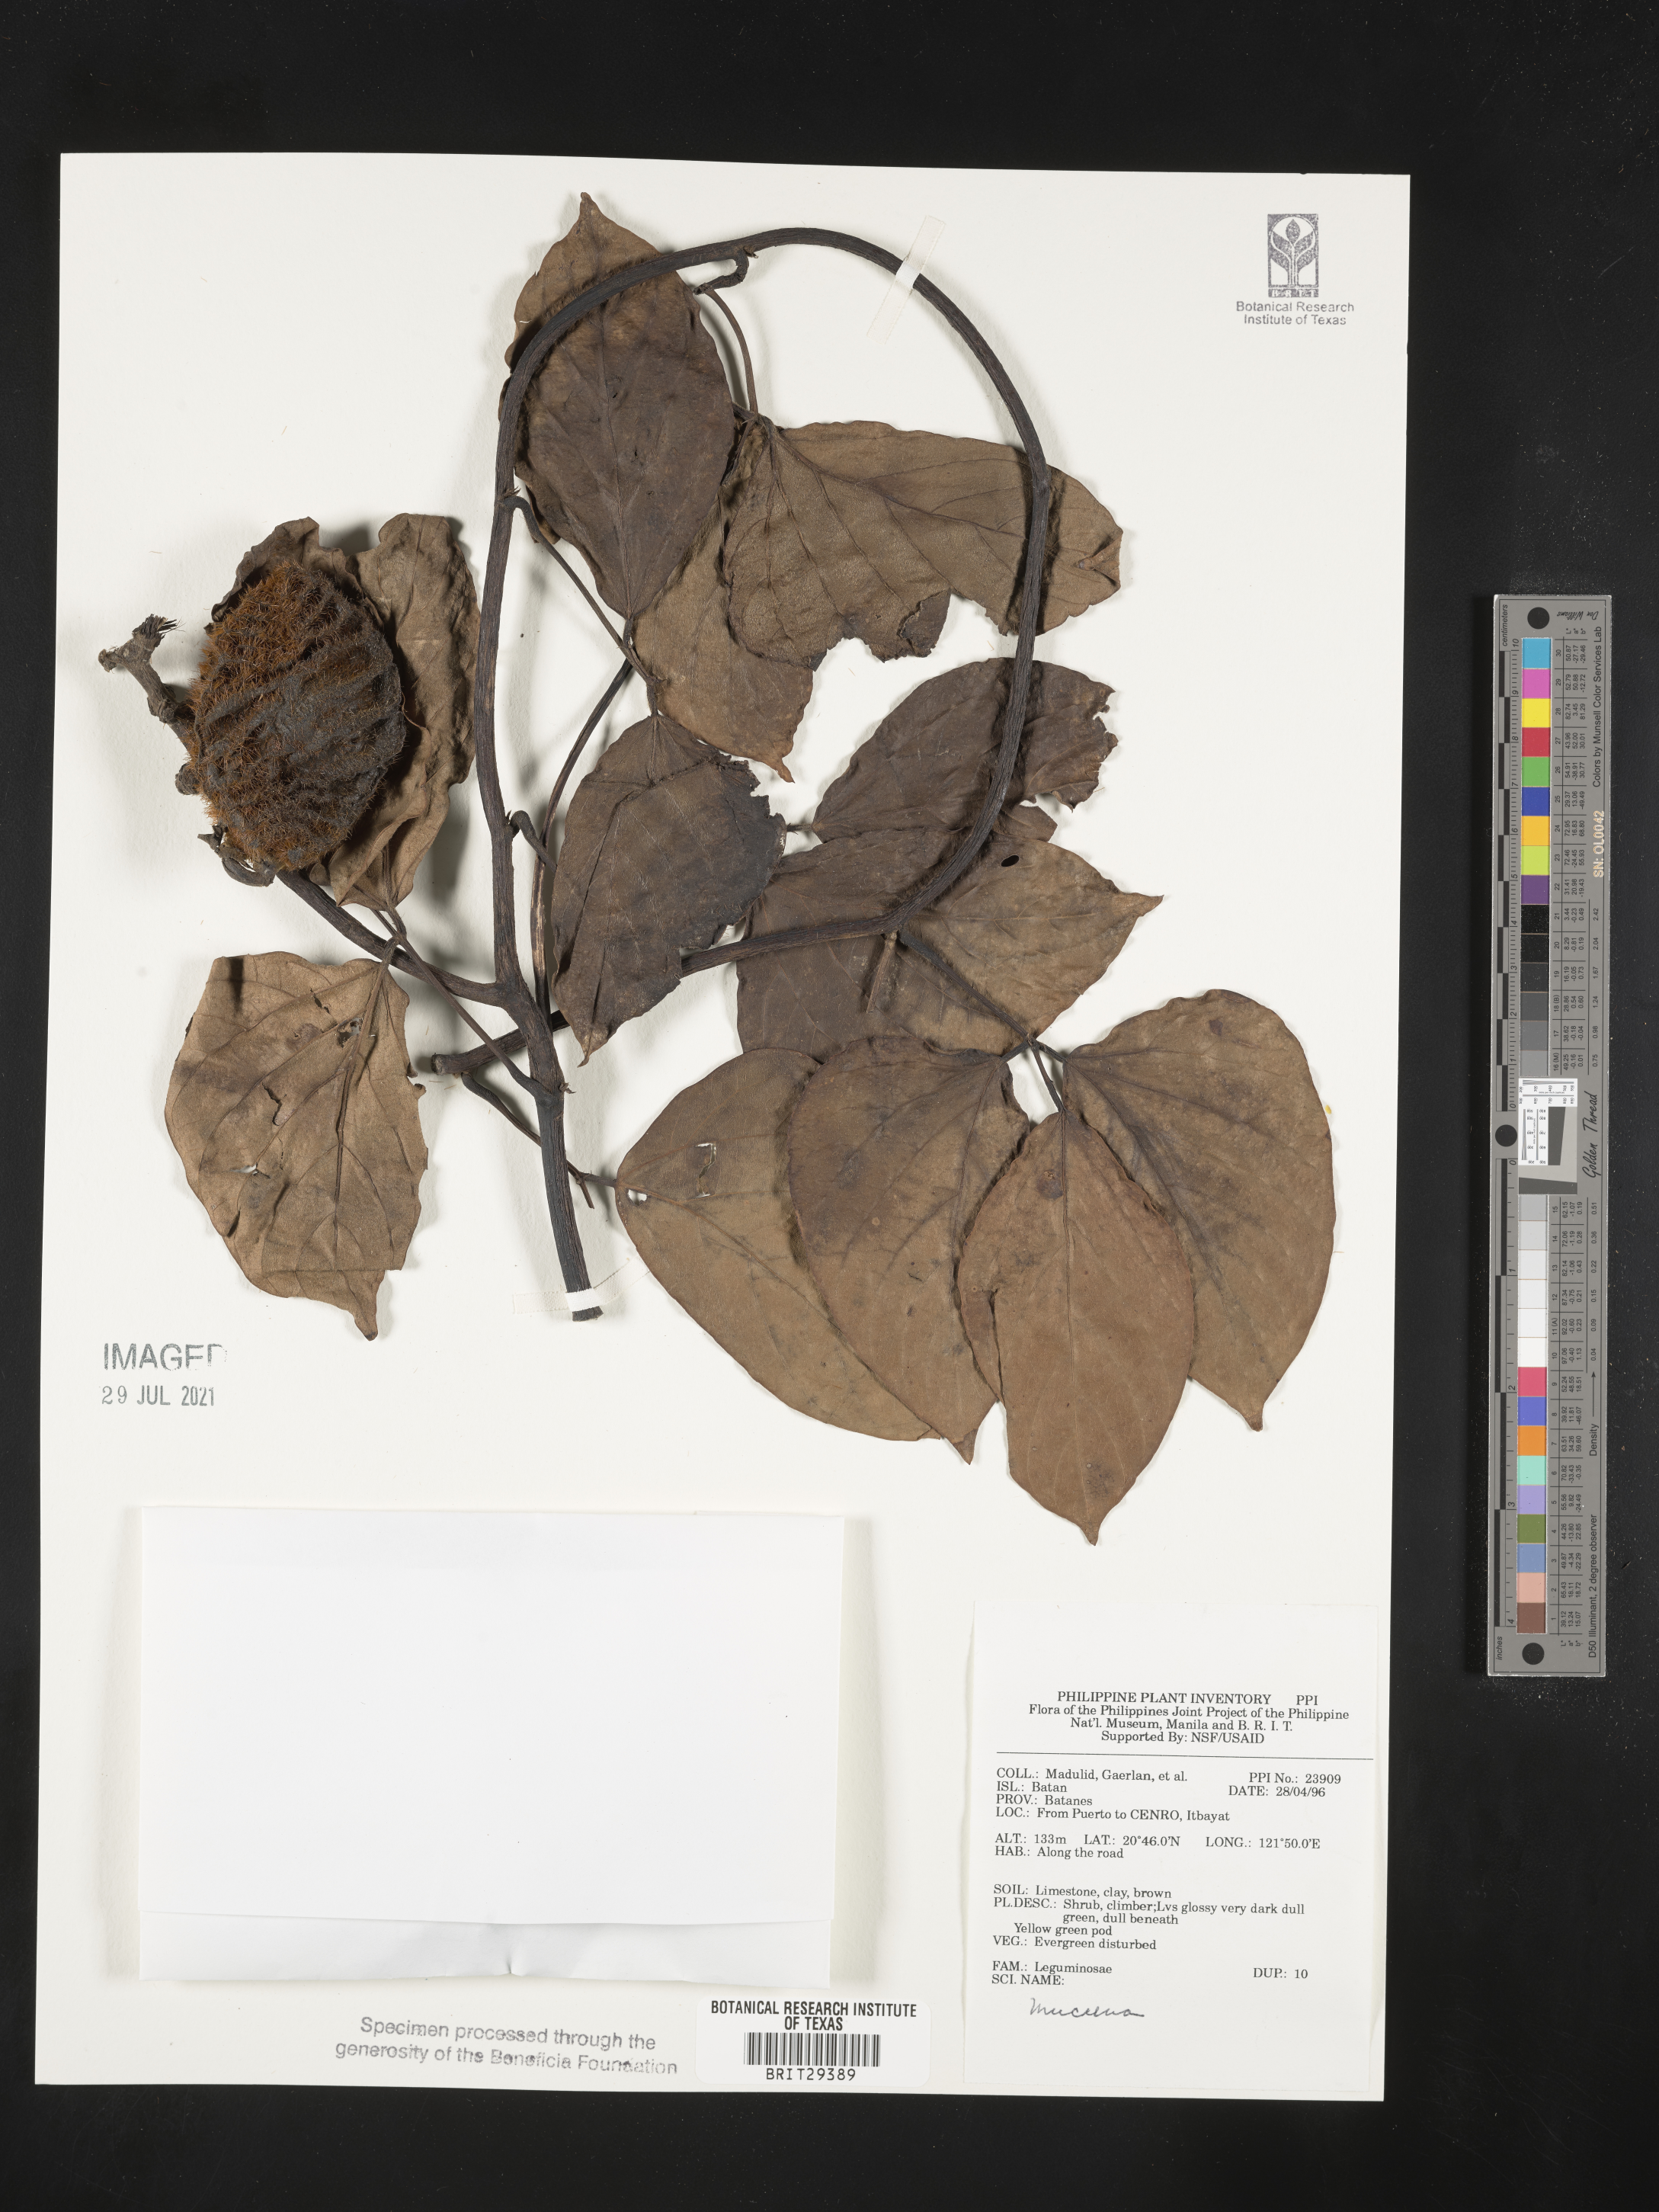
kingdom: Plantae
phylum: Tracheophyta
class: Magnoliopsida
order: Fabales
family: Fabaceae
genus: Mucuna
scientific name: Mucuna
